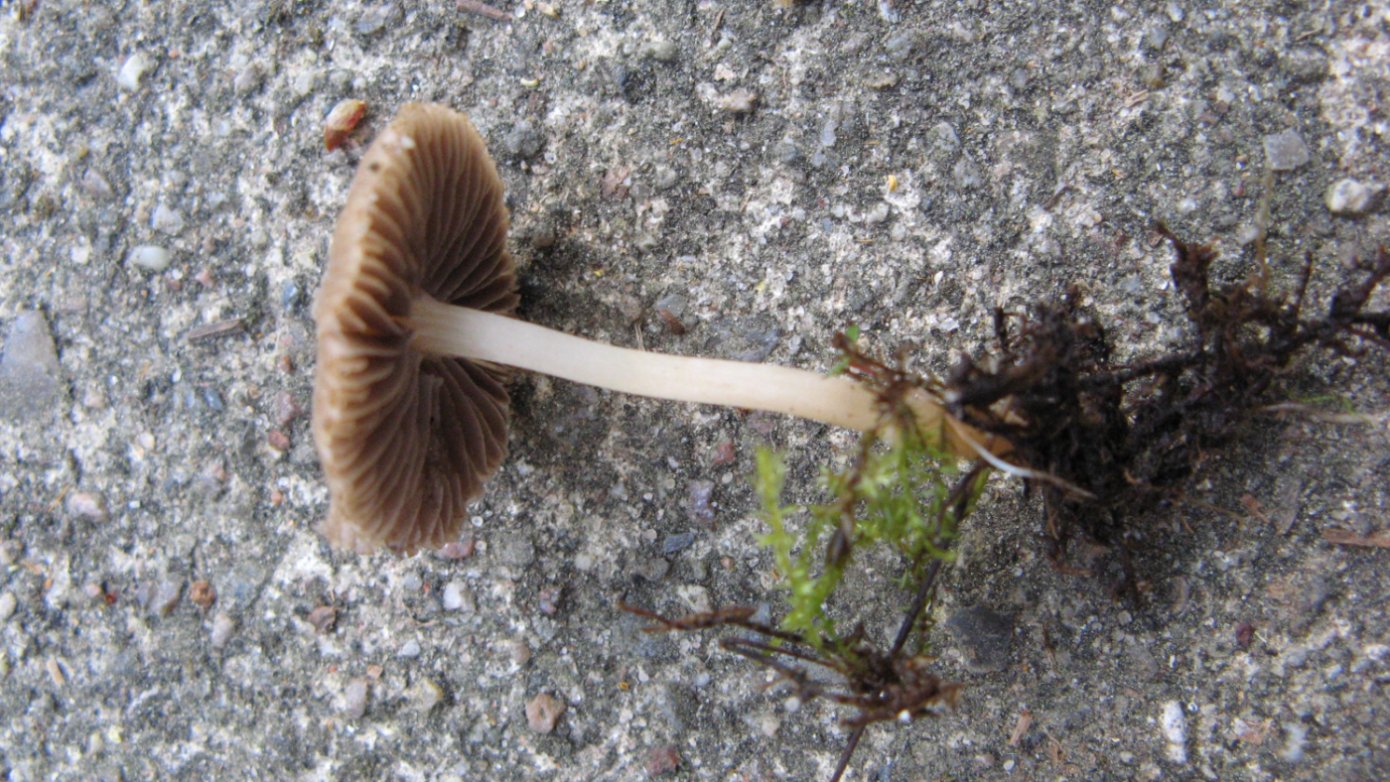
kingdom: Fungi
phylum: Basidiomycota
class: Agaricomycetes
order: Agaricales
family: Psathyrellaceae
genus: Psathyrella
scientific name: Psathyrella thujina
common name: staude-mørkhat
